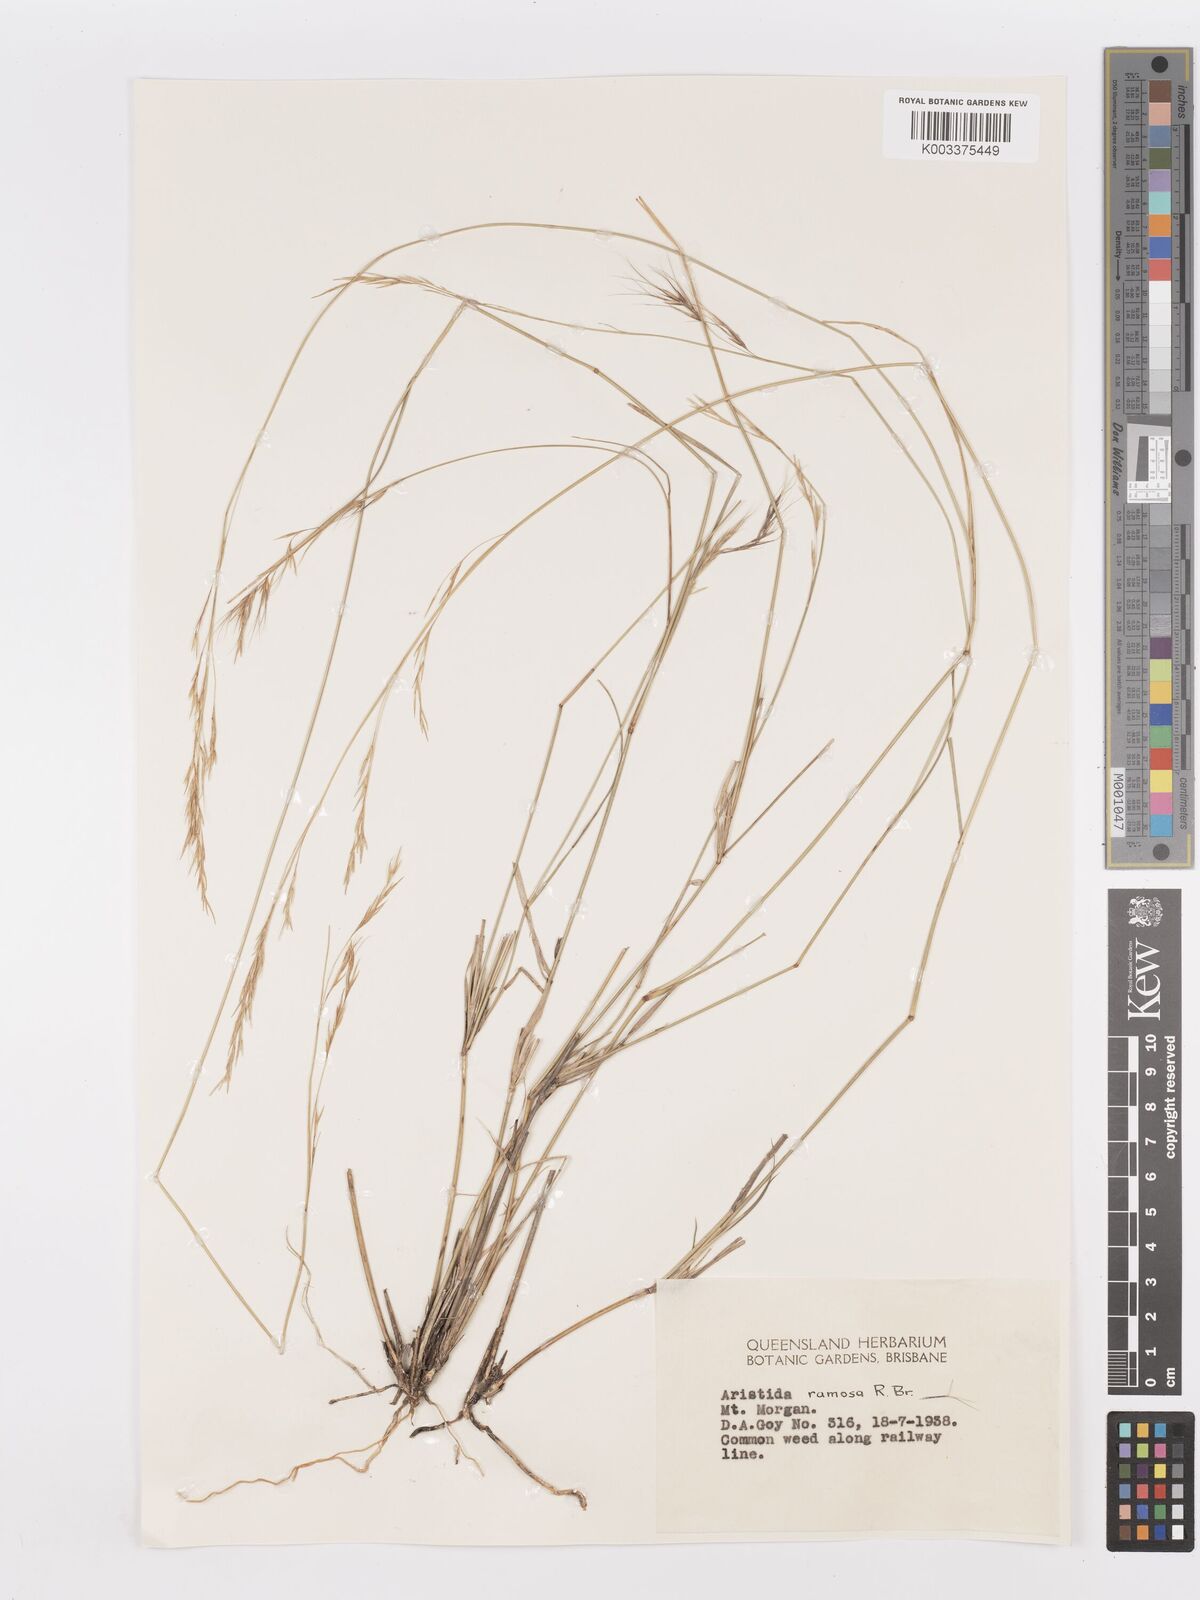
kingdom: Plantae
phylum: Tracheophyta
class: Liliopsida
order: Poales
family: Poaceae
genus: Aristida
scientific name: Aristida ramosa
